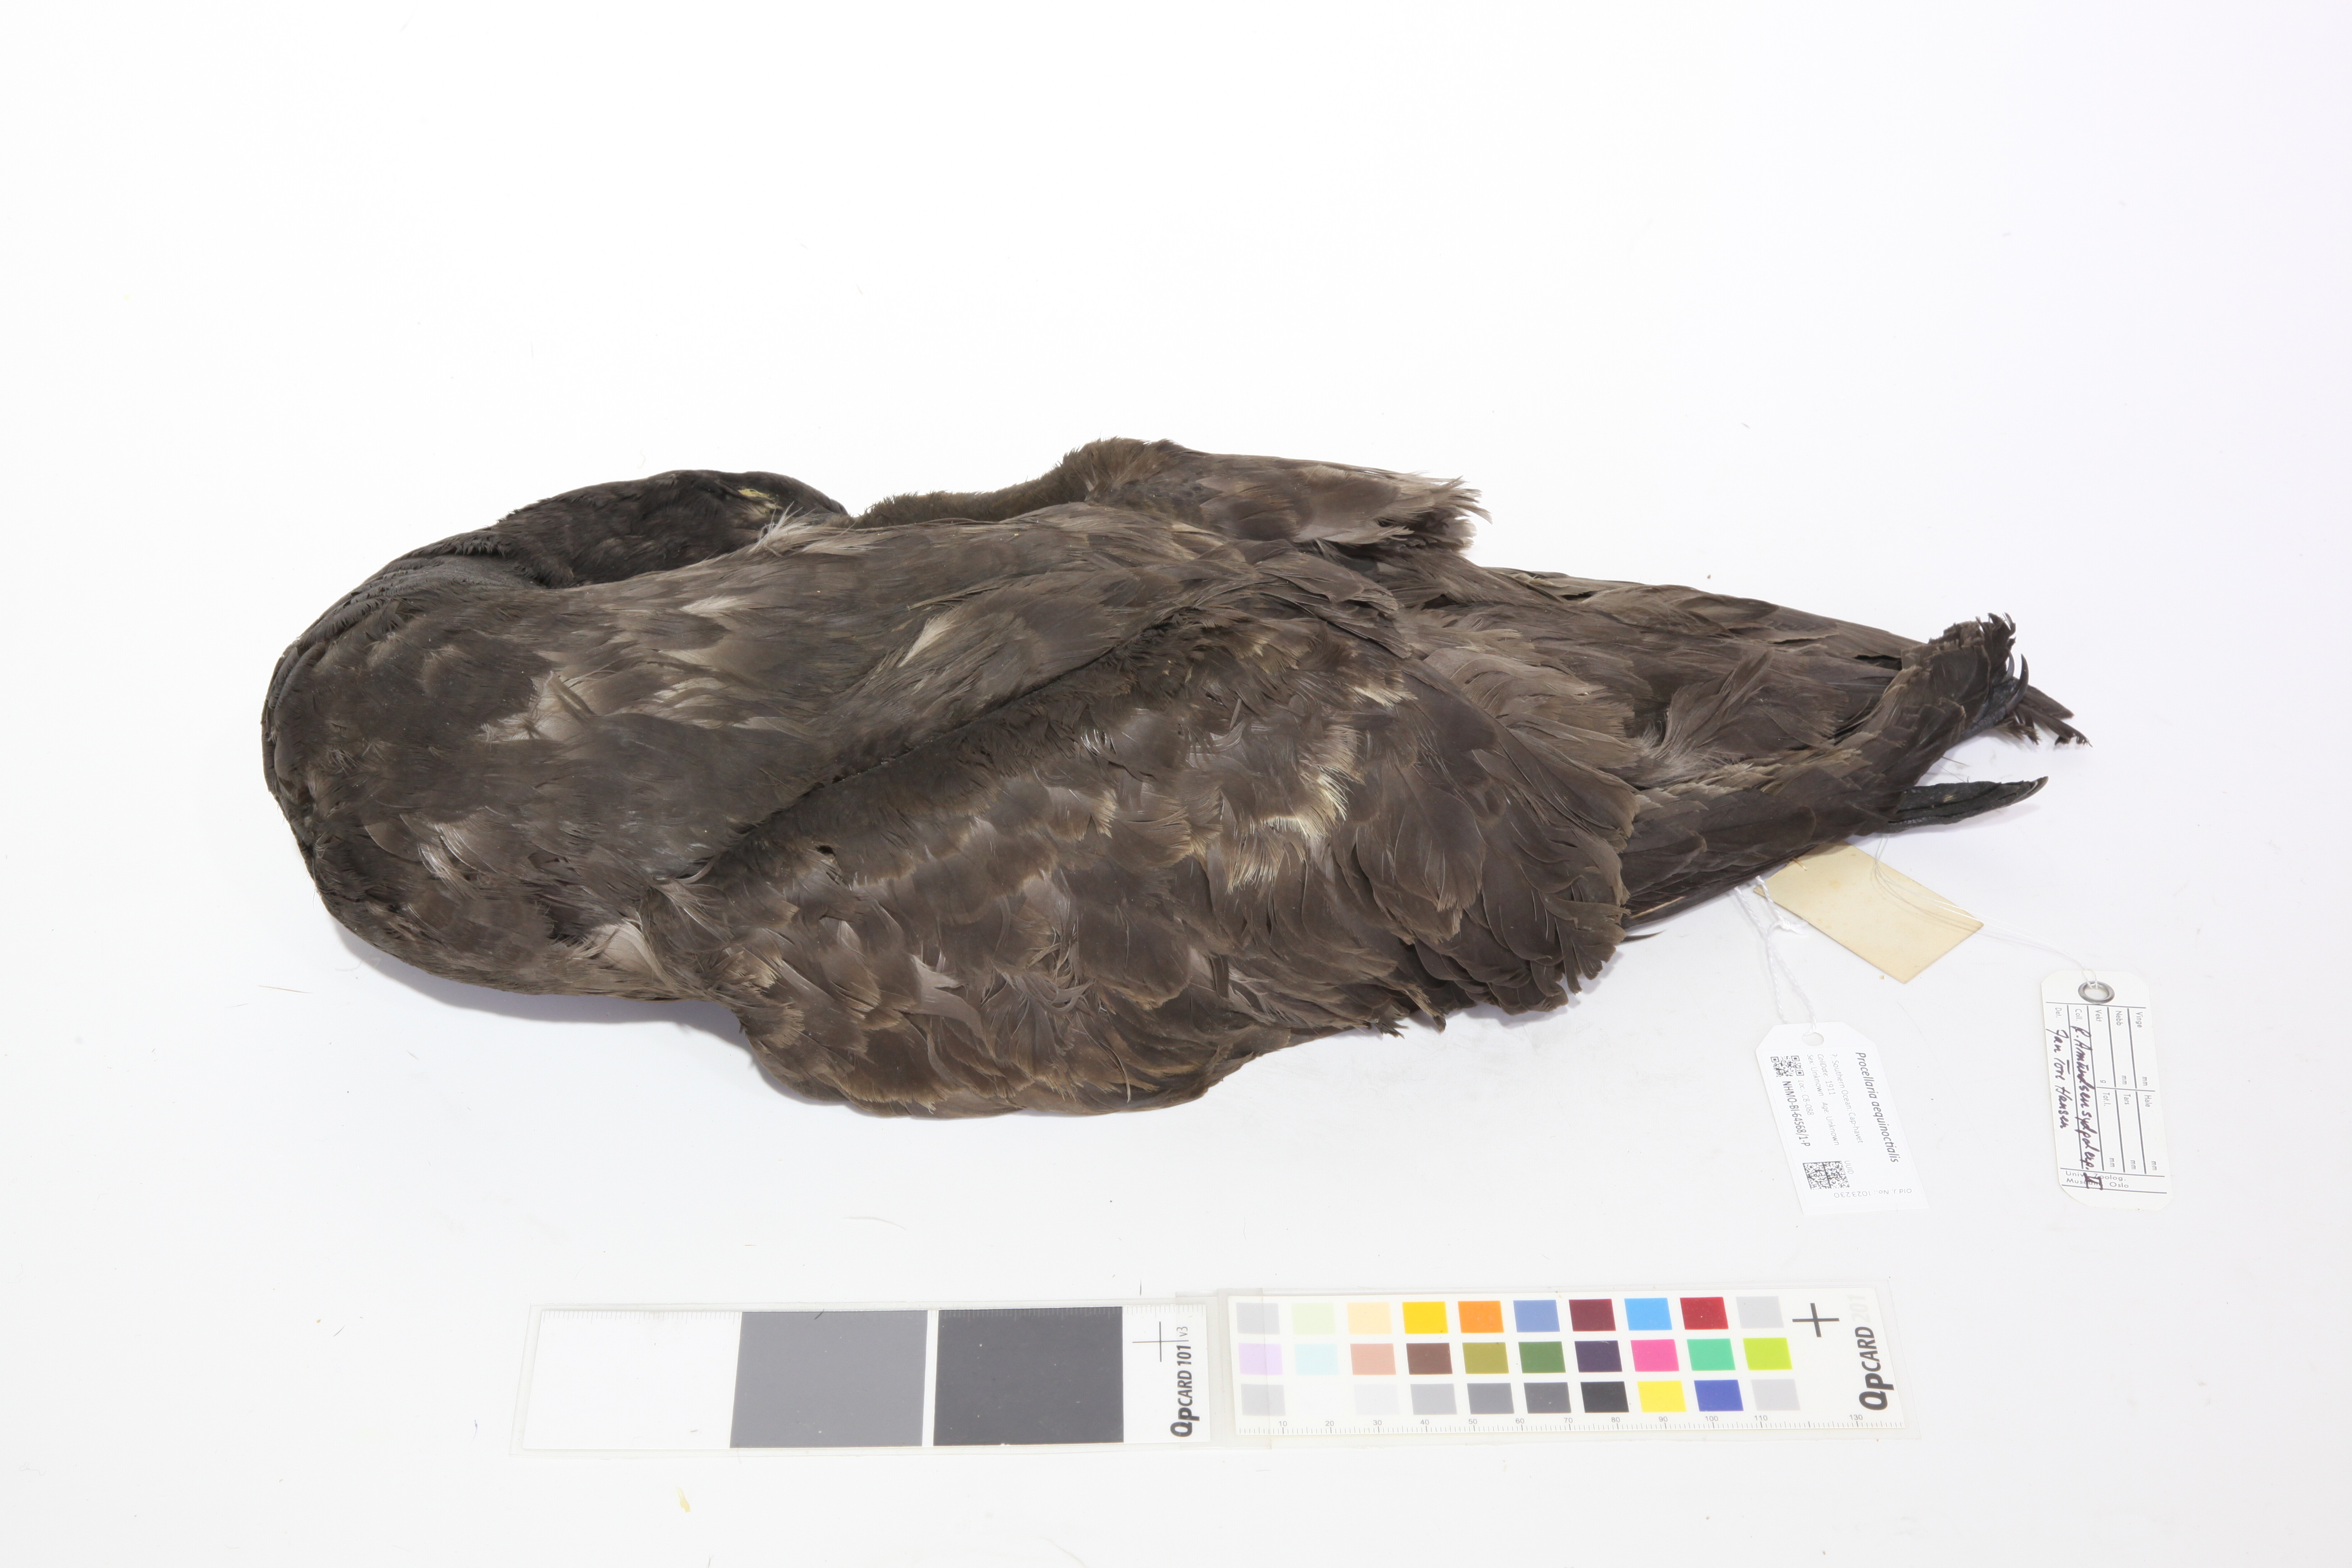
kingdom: Animalia
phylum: Chordata
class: Aves
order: Procellariiformes
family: Procellariidae
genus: Procellaria
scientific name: Procellaria aequinoctialis
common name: White-chinned petrel
